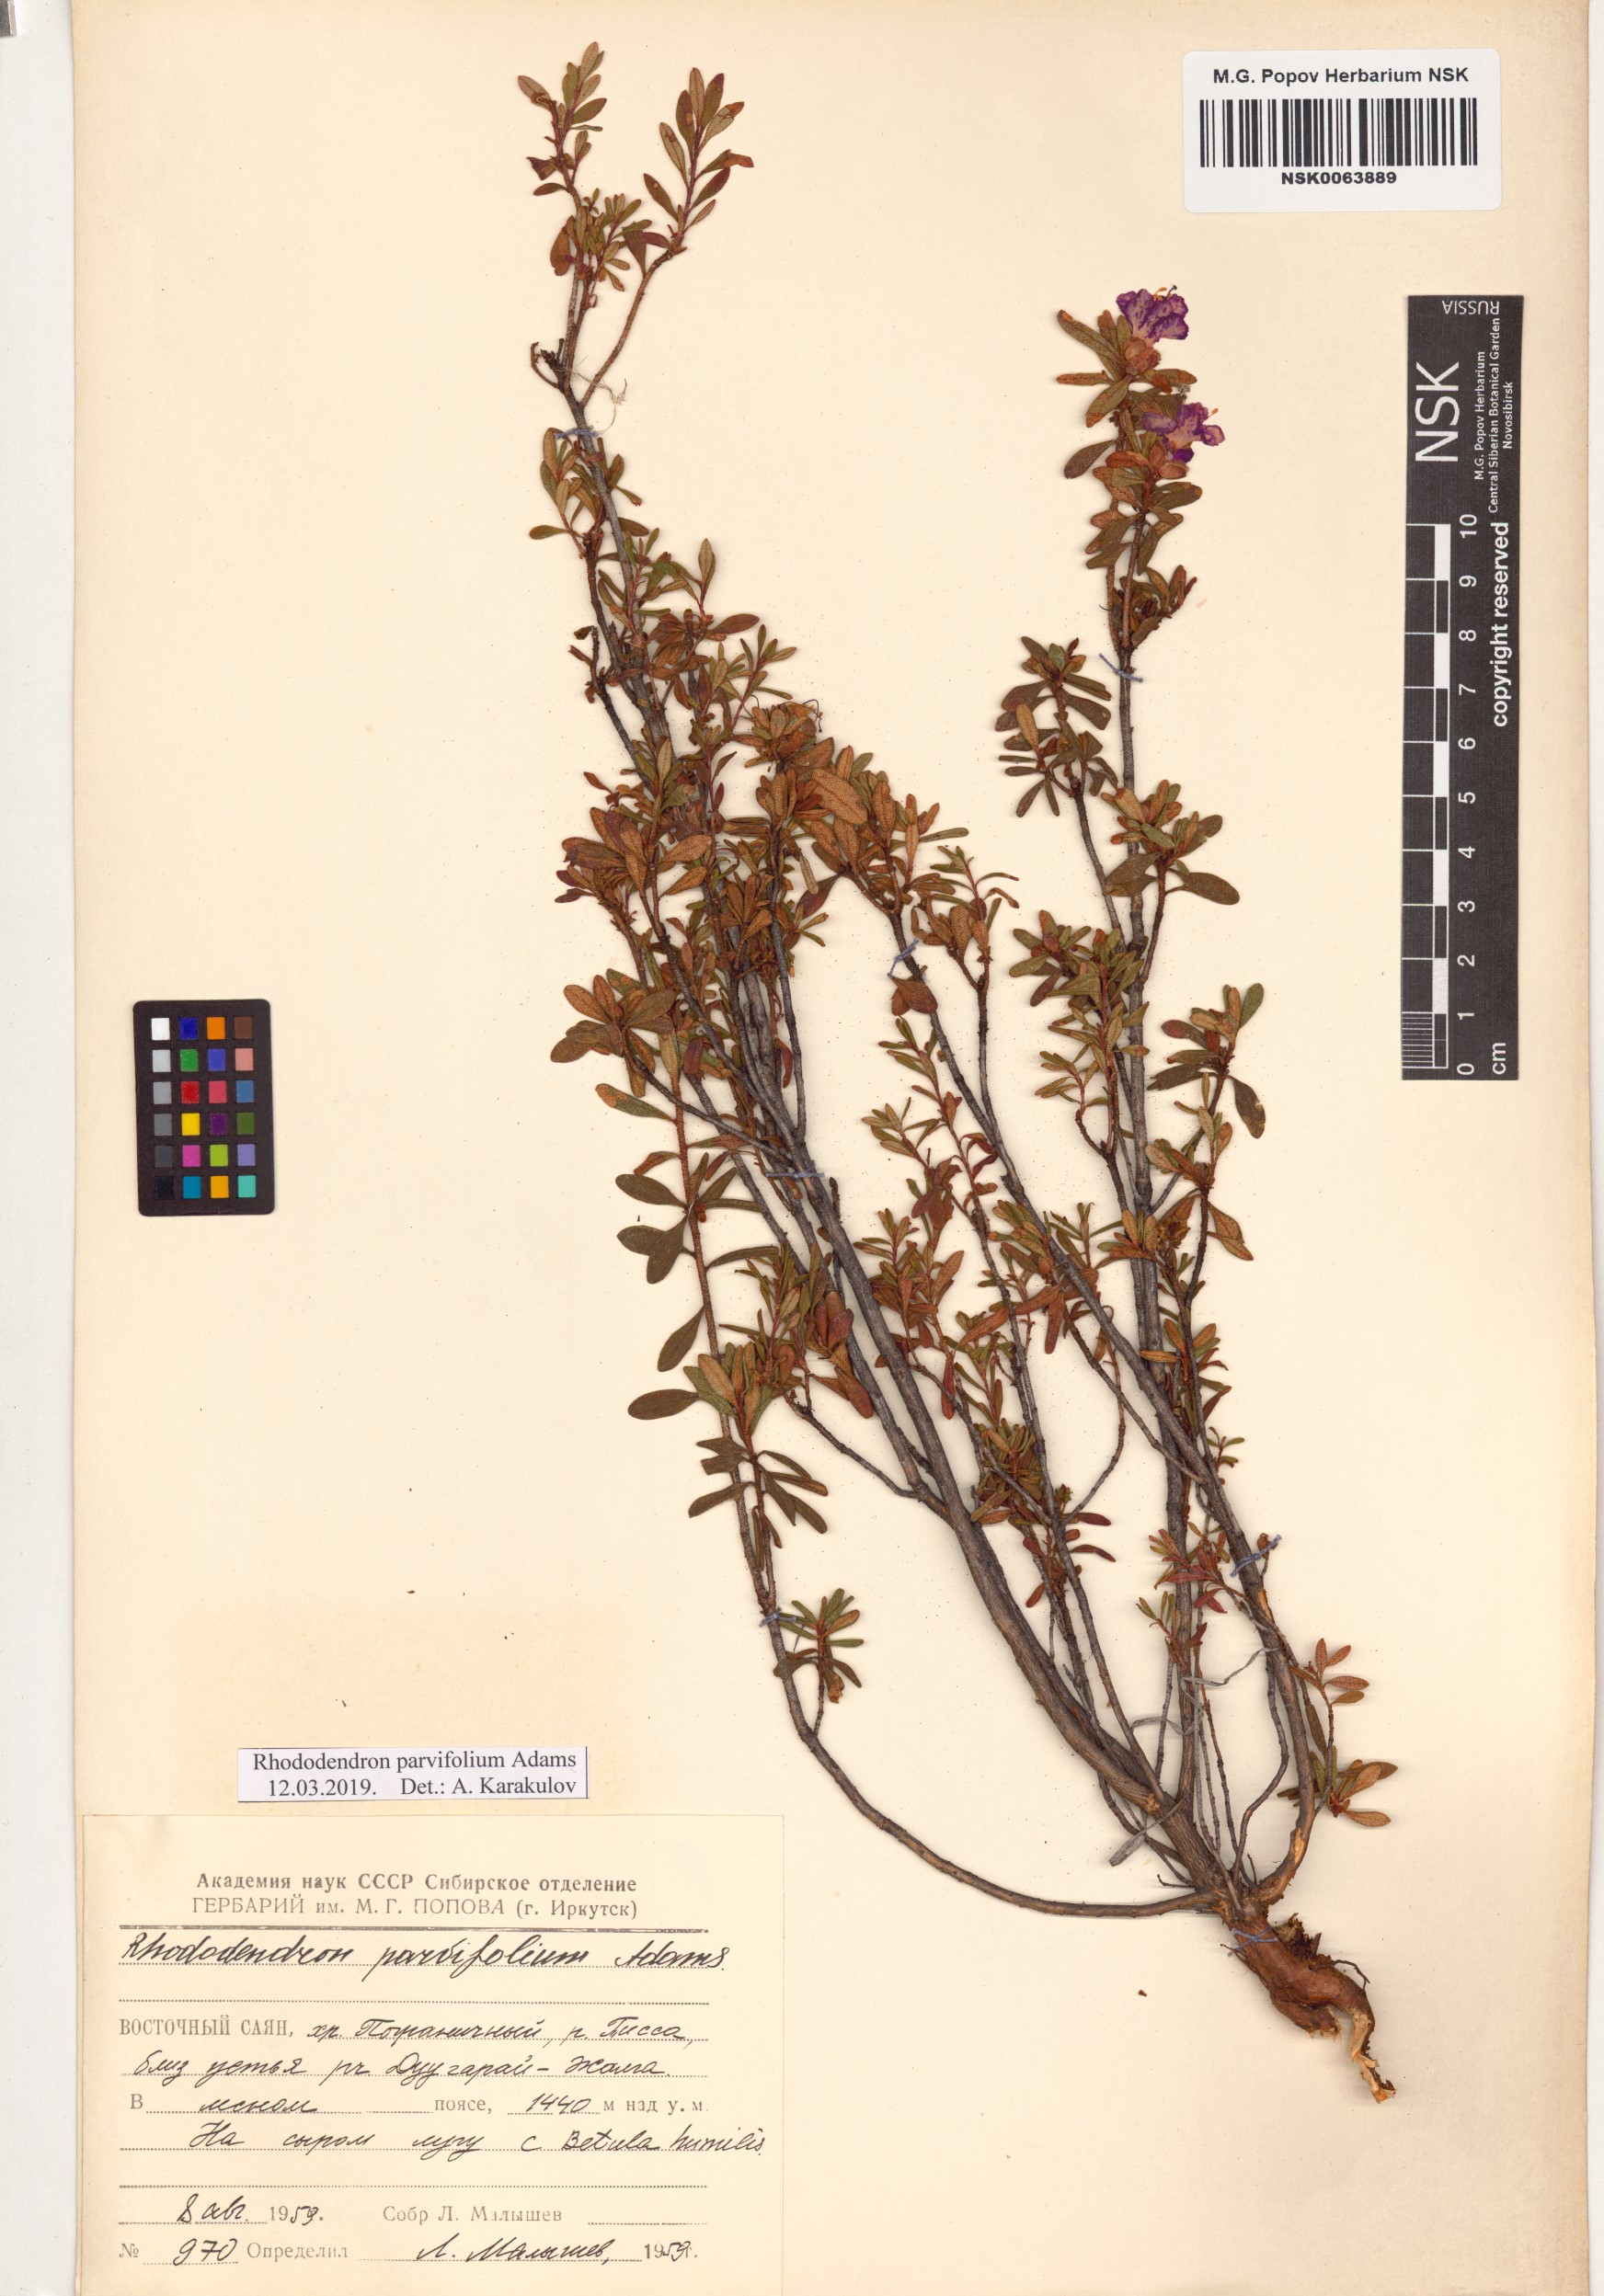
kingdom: Plantae
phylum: Tracheophyta
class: Magnoliopsida
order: Ericales
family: Ericaceae
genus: Rhododendron
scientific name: Rhododendron parvifolium
